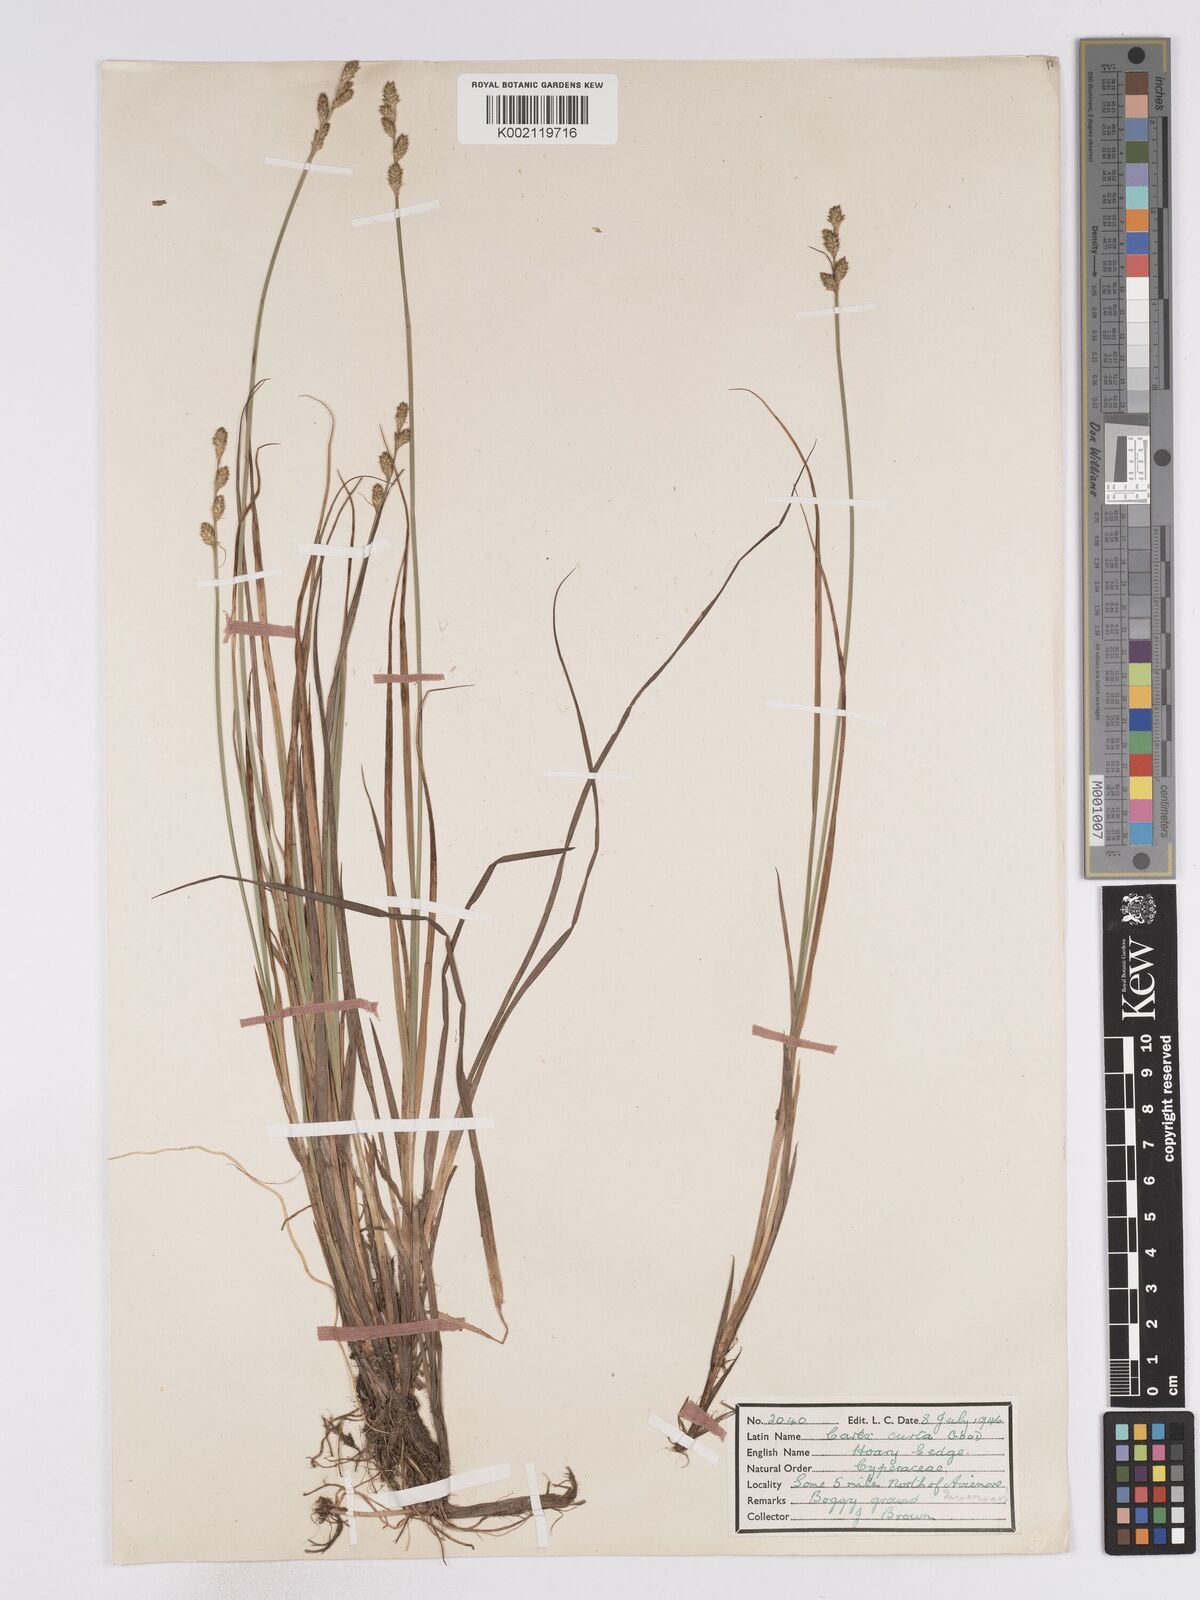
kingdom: Plantae
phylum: Tracheophyta
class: Liliopsida
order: Poales
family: Cyperaceae
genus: Carex
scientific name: Carex curta
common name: White sedge
